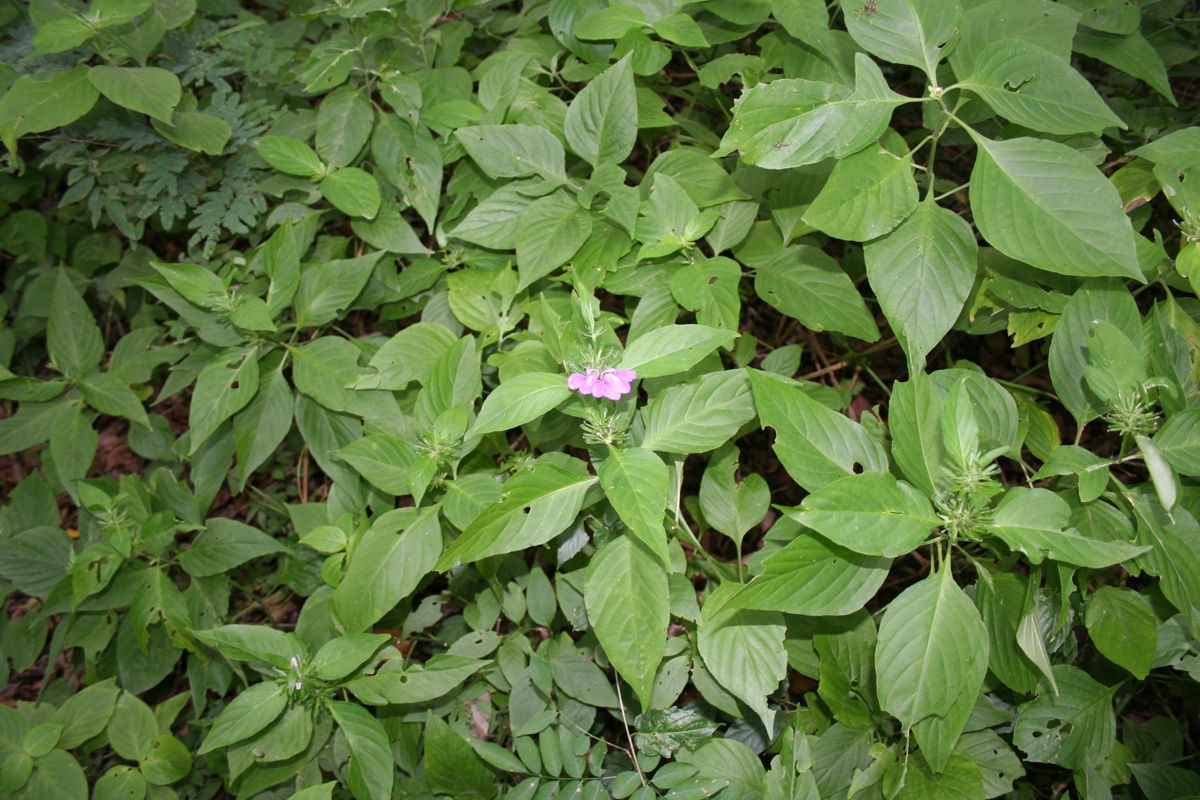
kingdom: Plantae
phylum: Tracheophyta
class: Magnoliopsida
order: Lamiales
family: Acanthaceae
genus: Justicia
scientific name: Justicia carthaginensis
